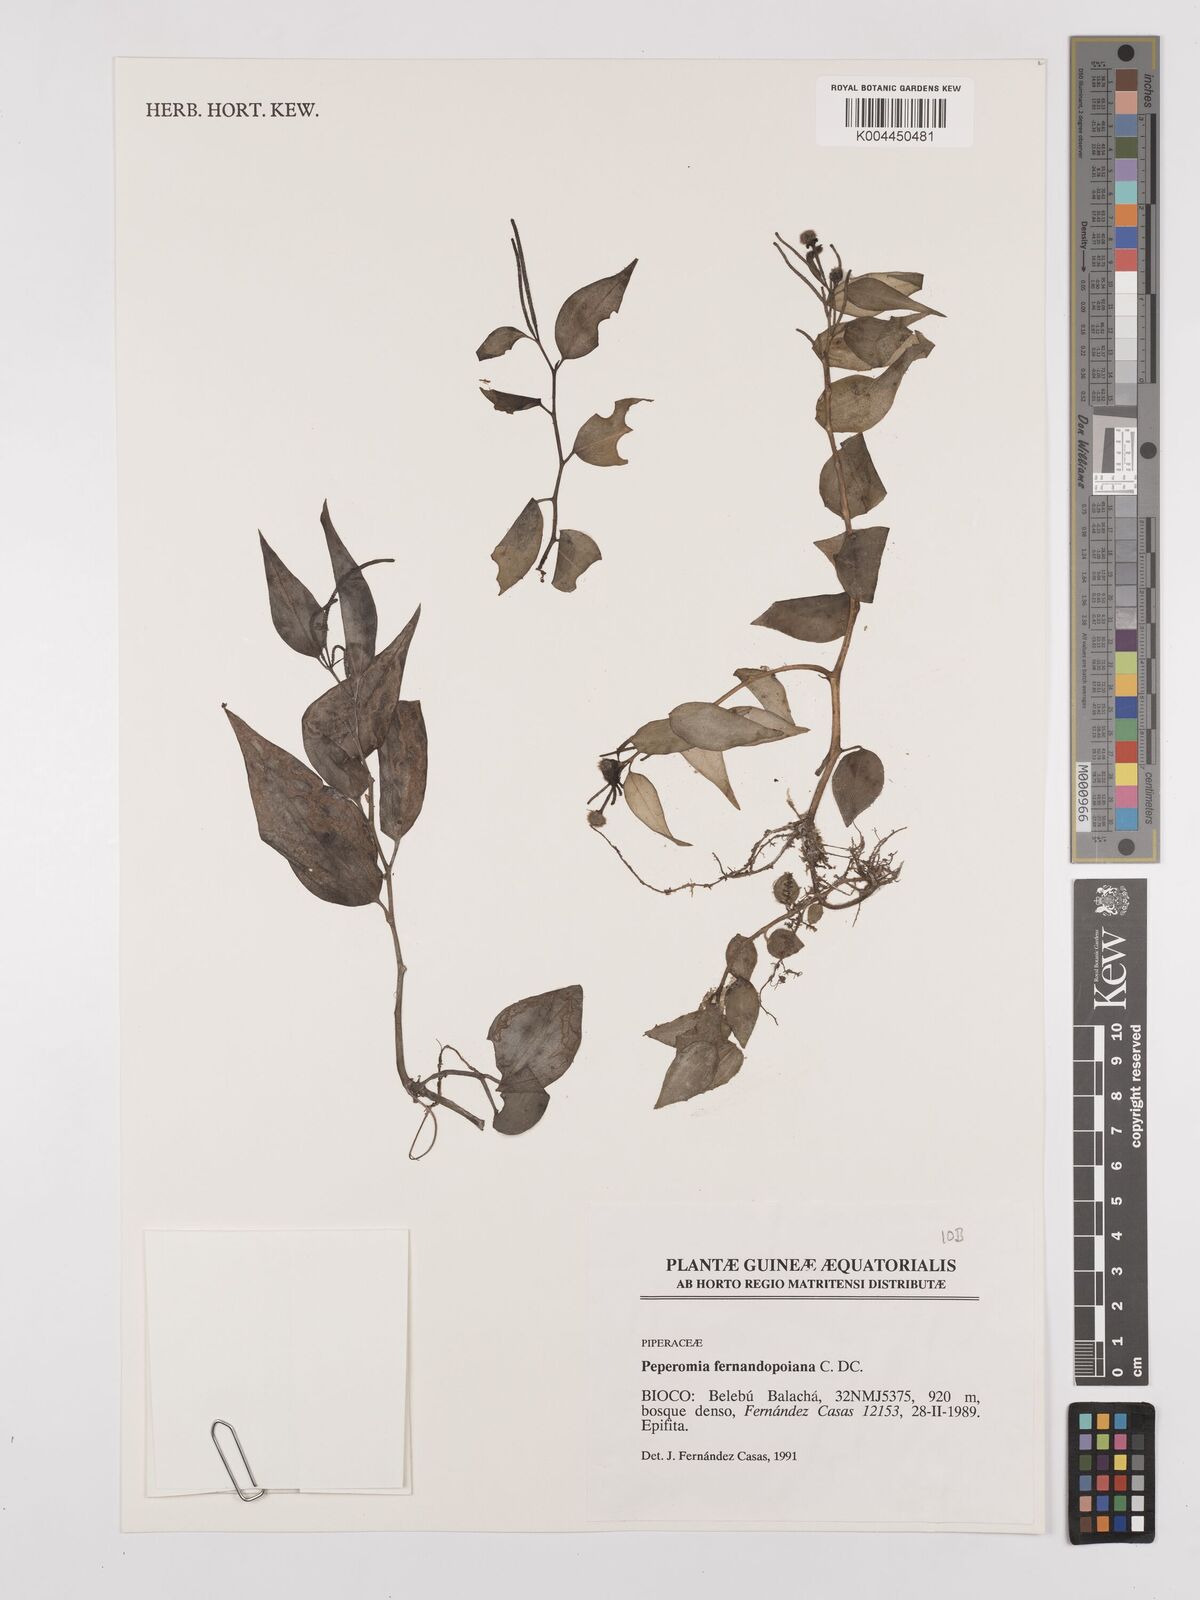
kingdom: Plantae
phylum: Tracheophyta
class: Magnoliopsida
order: Piperales
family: Piperaceae
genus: Peperomia
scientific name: Peperomia fernandopoiana
